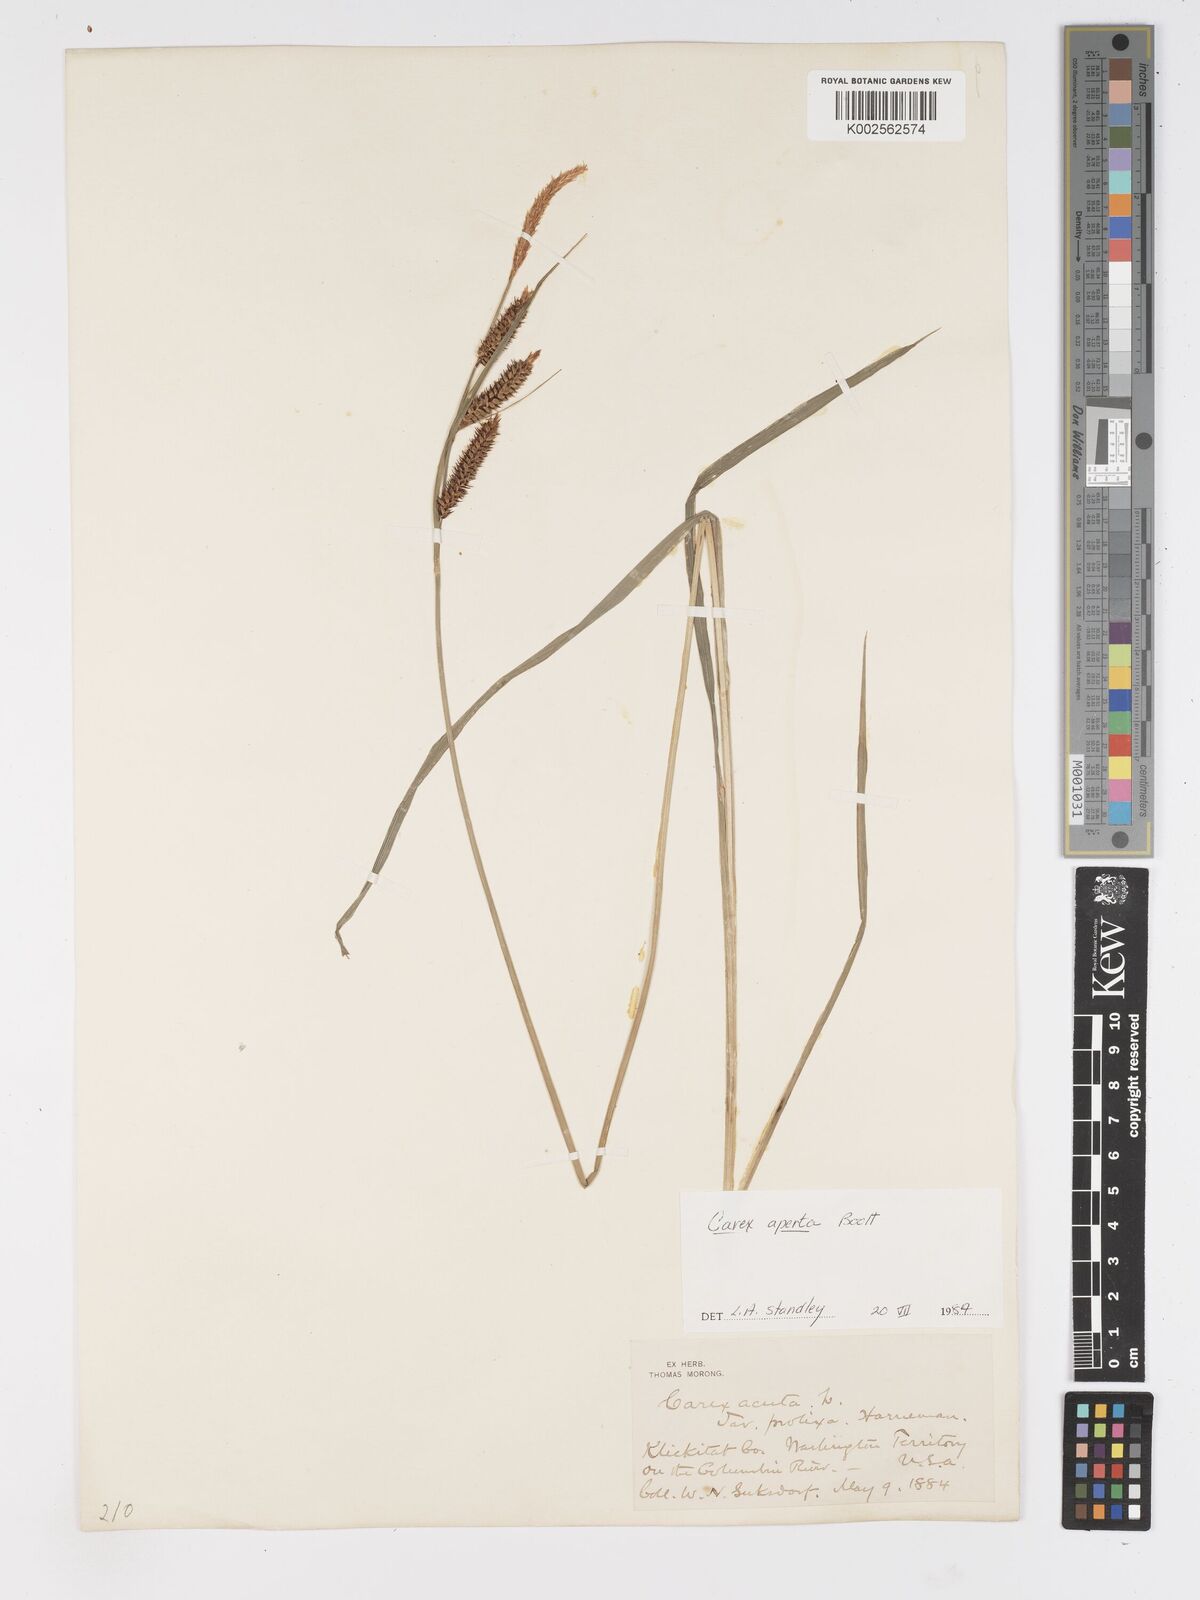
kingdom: Plantae
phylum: Tracheophyta
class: Liliopsida
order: Poales
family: Cyperaceae
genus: Carex
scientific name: Carex haydenii
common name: Hayden's sedge
